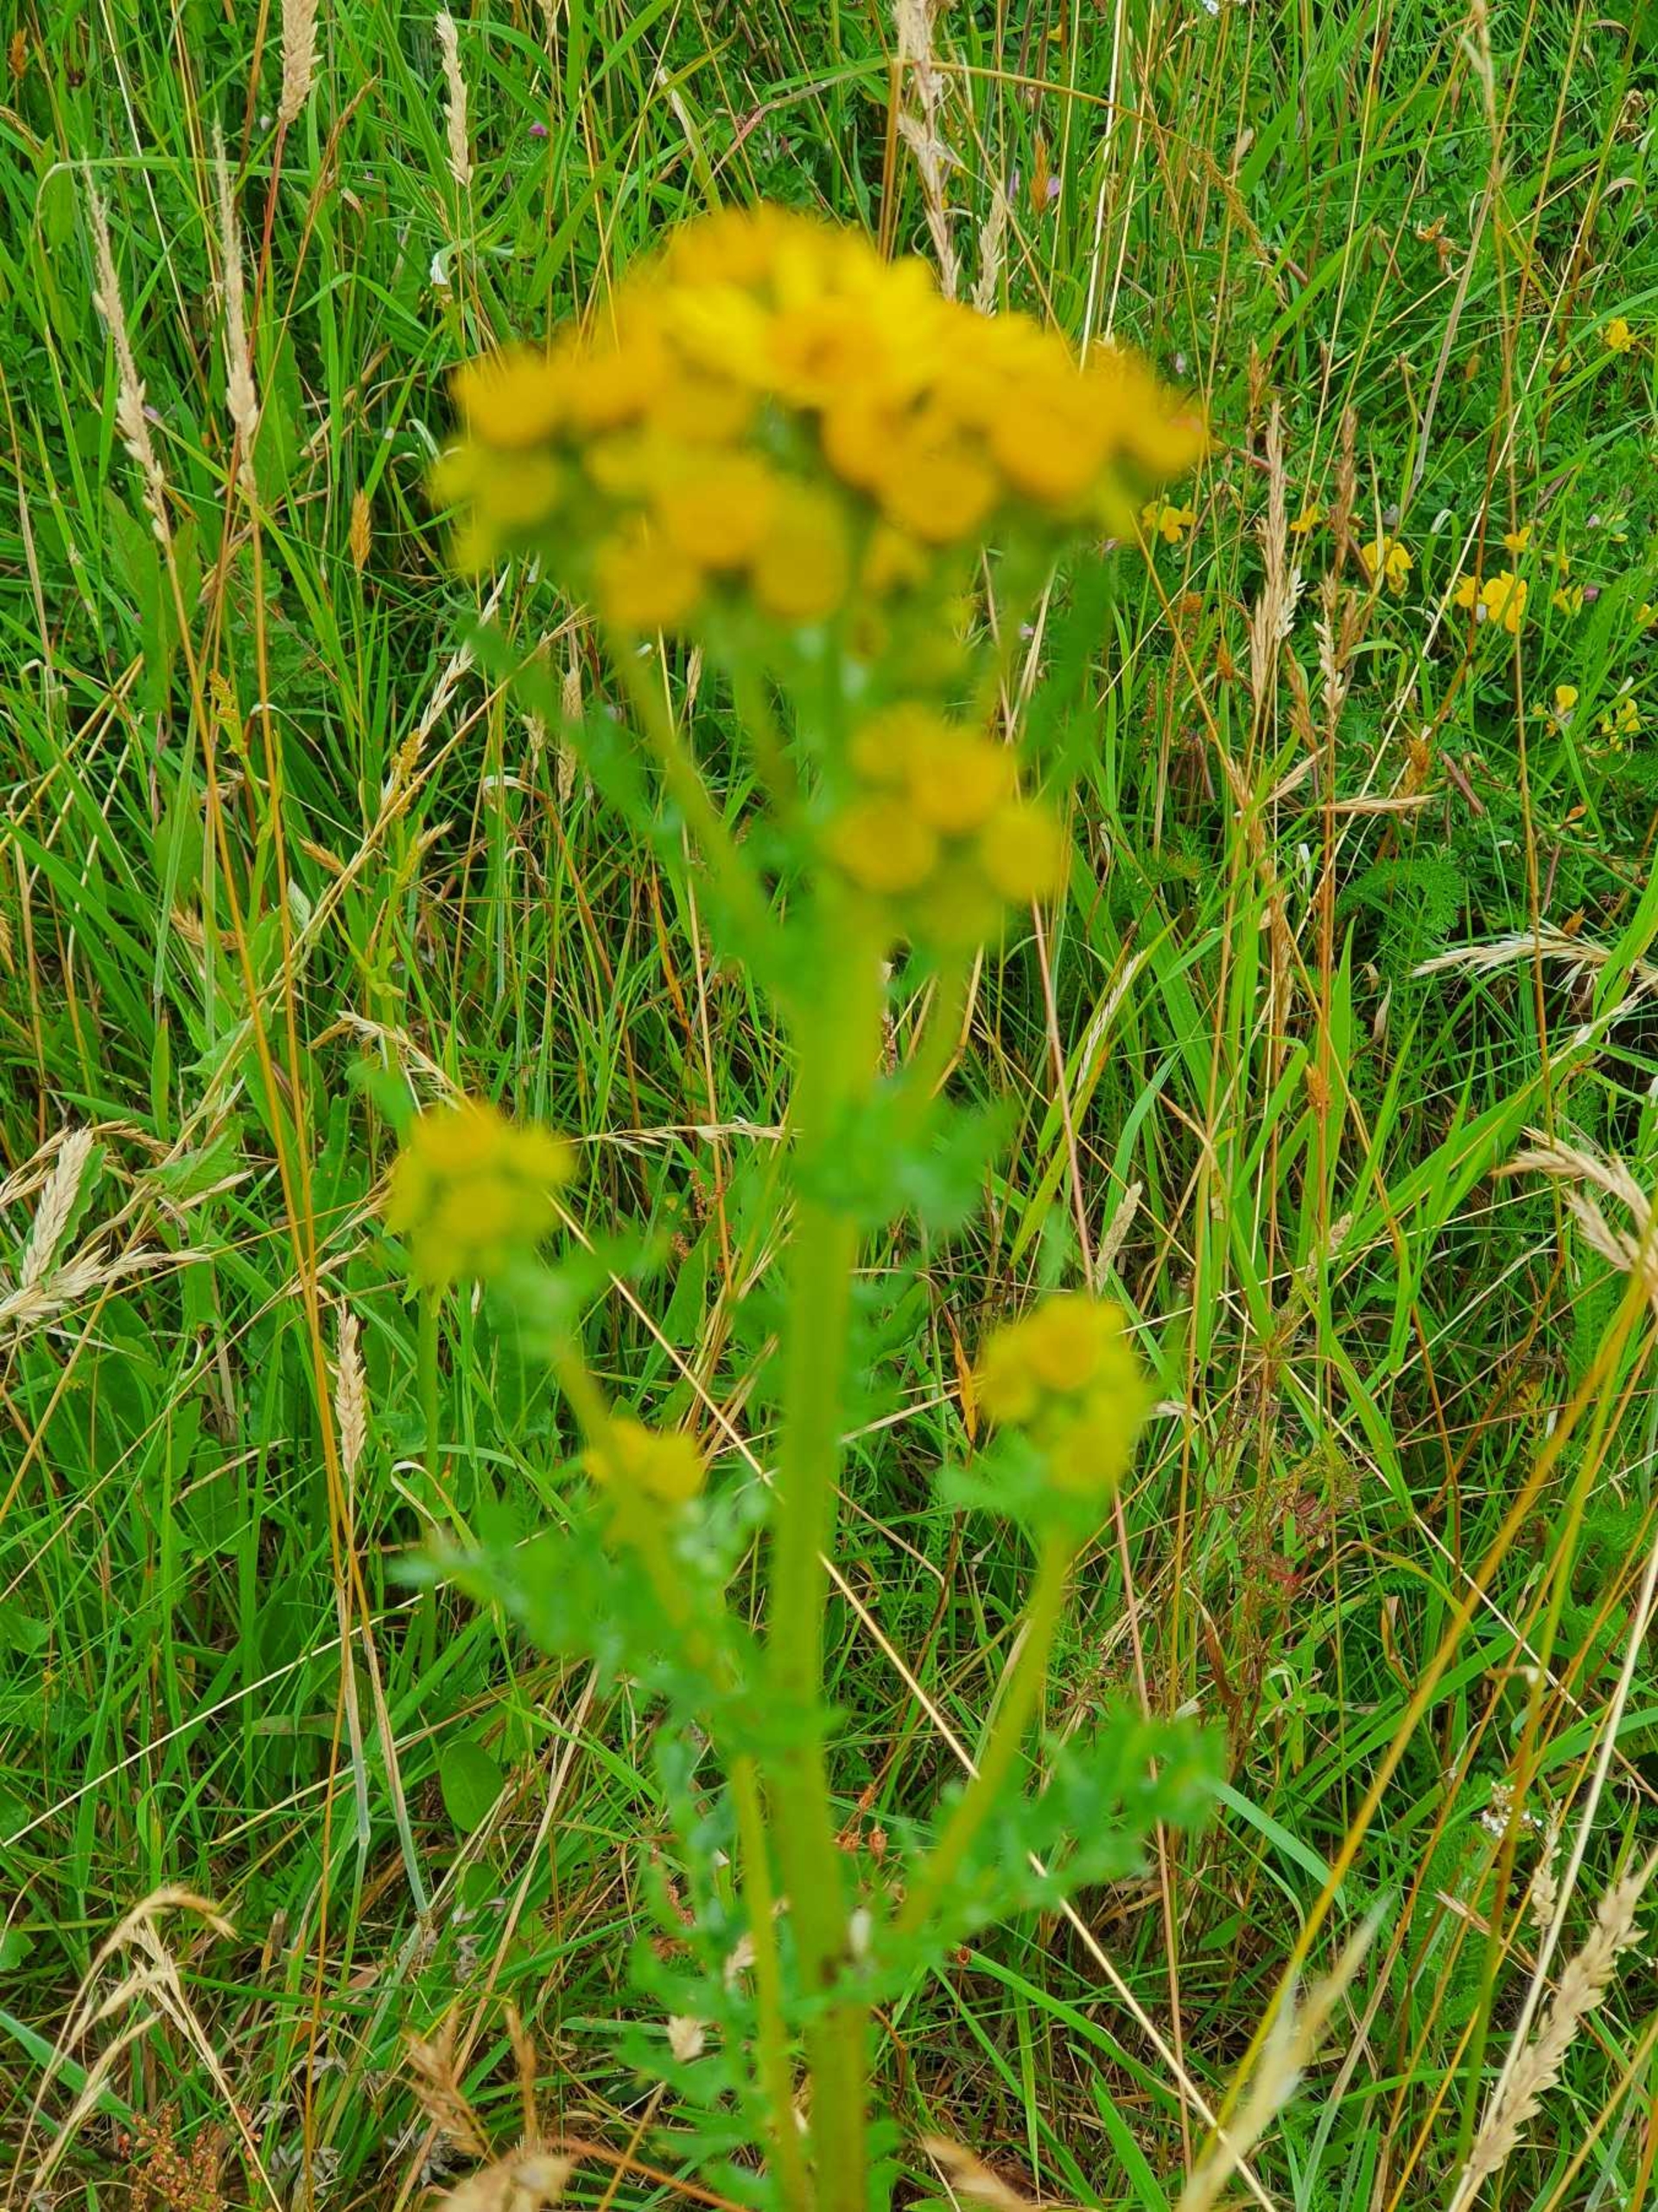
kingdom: Plantae
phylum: Tracheophyta
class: Magnoliopsida
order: Asterales
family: Asteraceae
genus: Jacobaea
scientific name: Jacobaea vulgaris
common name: Eng-brandbæger
